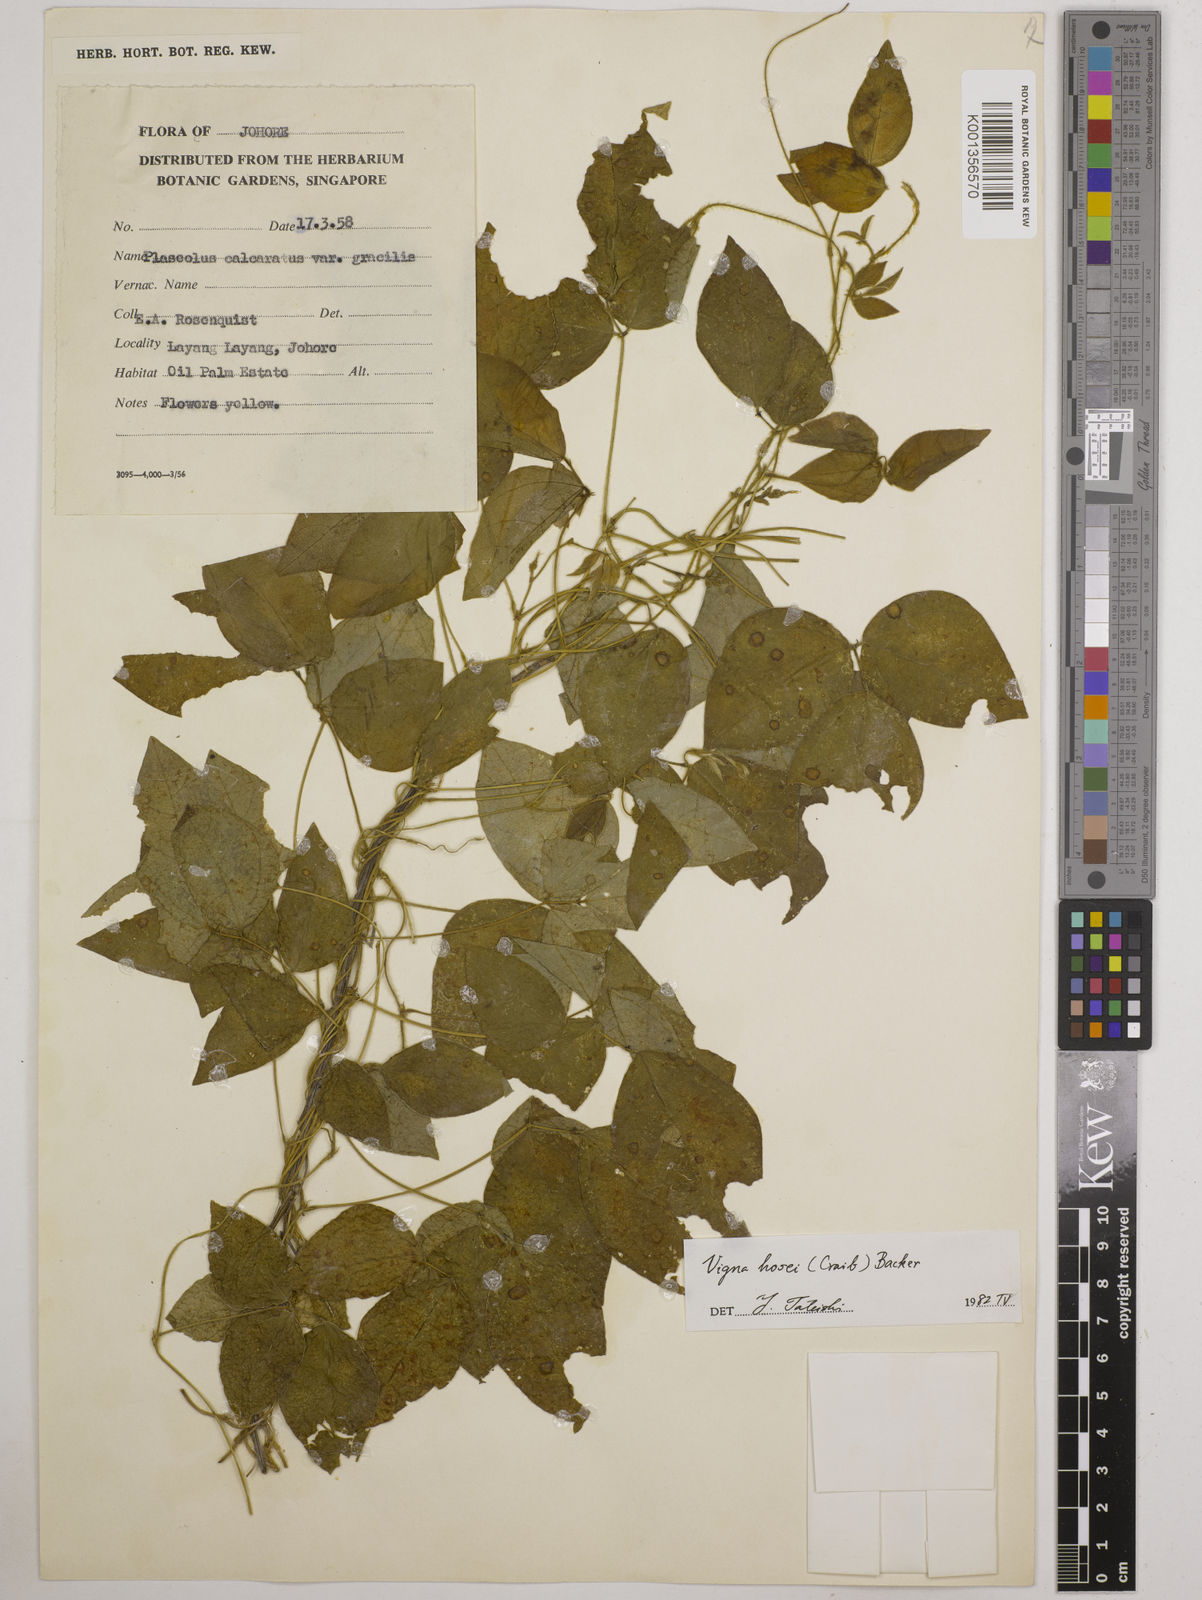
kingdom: Plantae
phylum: Tracheophyta
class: Magnoliopsida
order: Fabales
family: Fabaceae
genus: Vigna
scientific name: Vigna hosei
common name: Sarawak-bean
